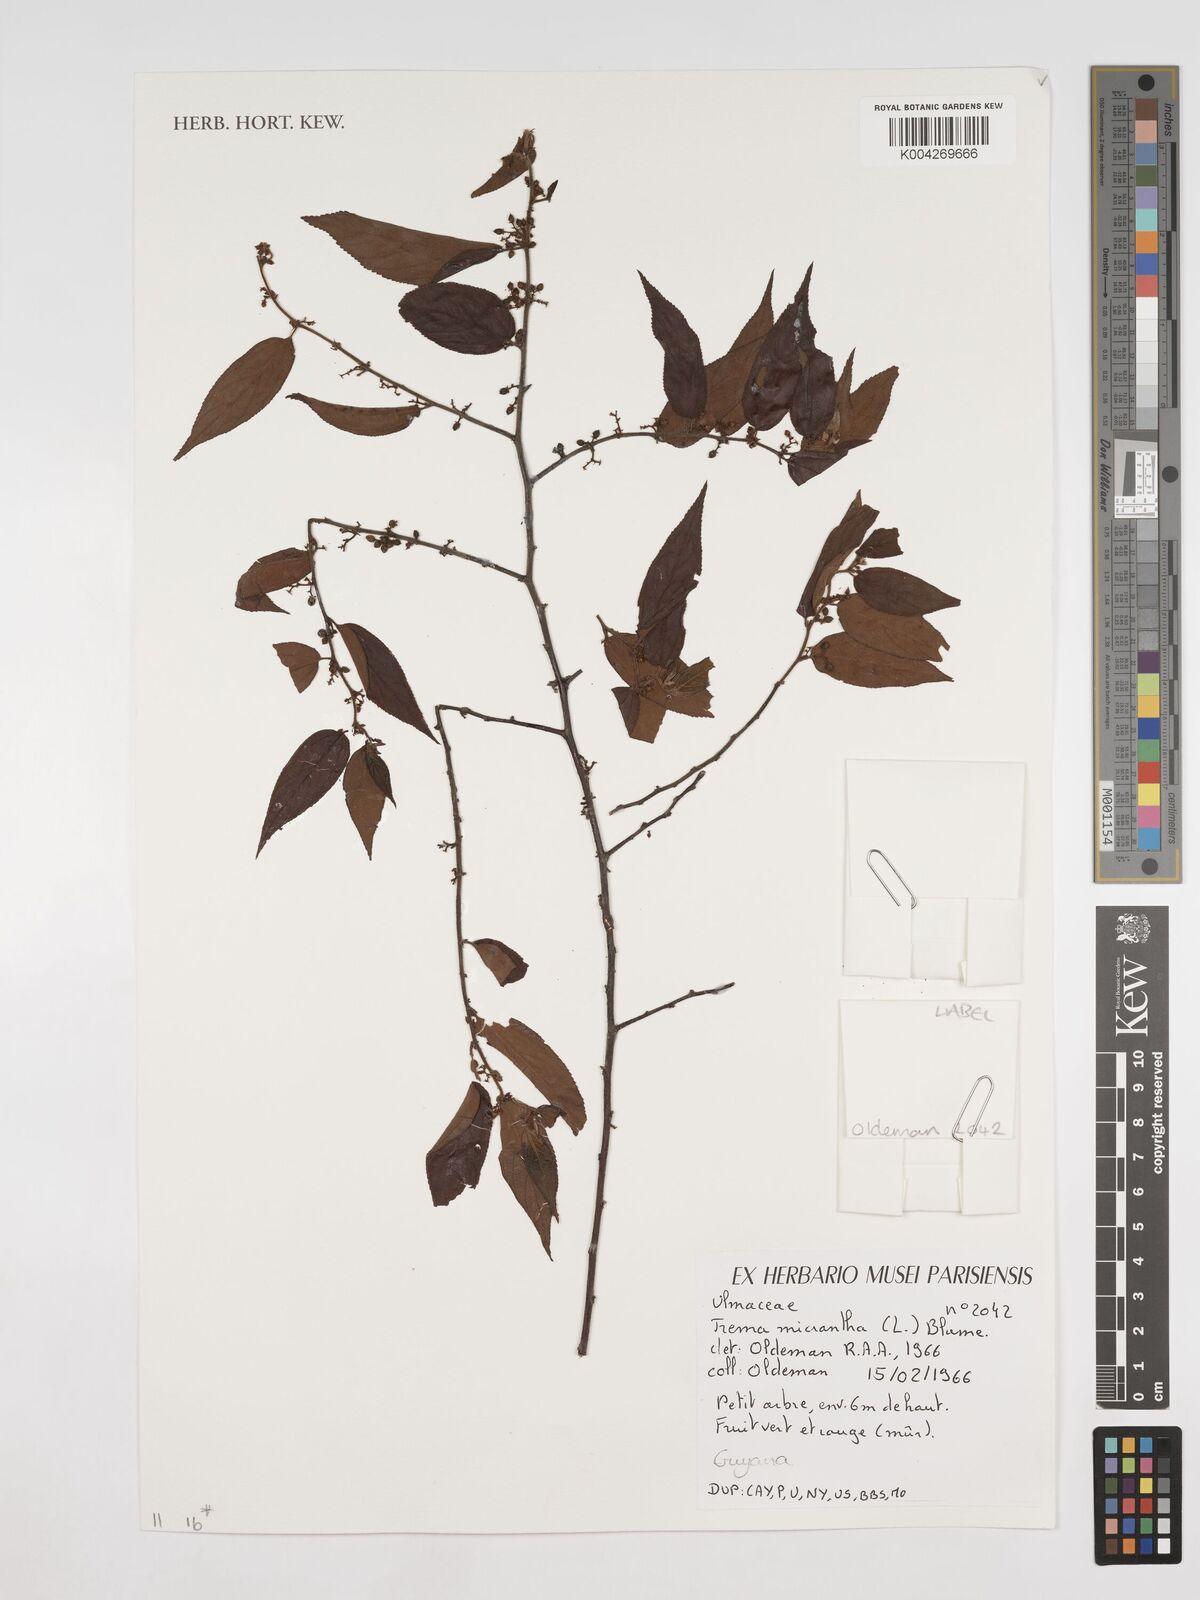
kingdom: Plantae
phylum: Tracheophyta
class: Magnoliopsida
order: Rosales
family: Cannabaceae
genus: Trema
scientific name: Trema micranthum
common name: Jamaican nettletree
